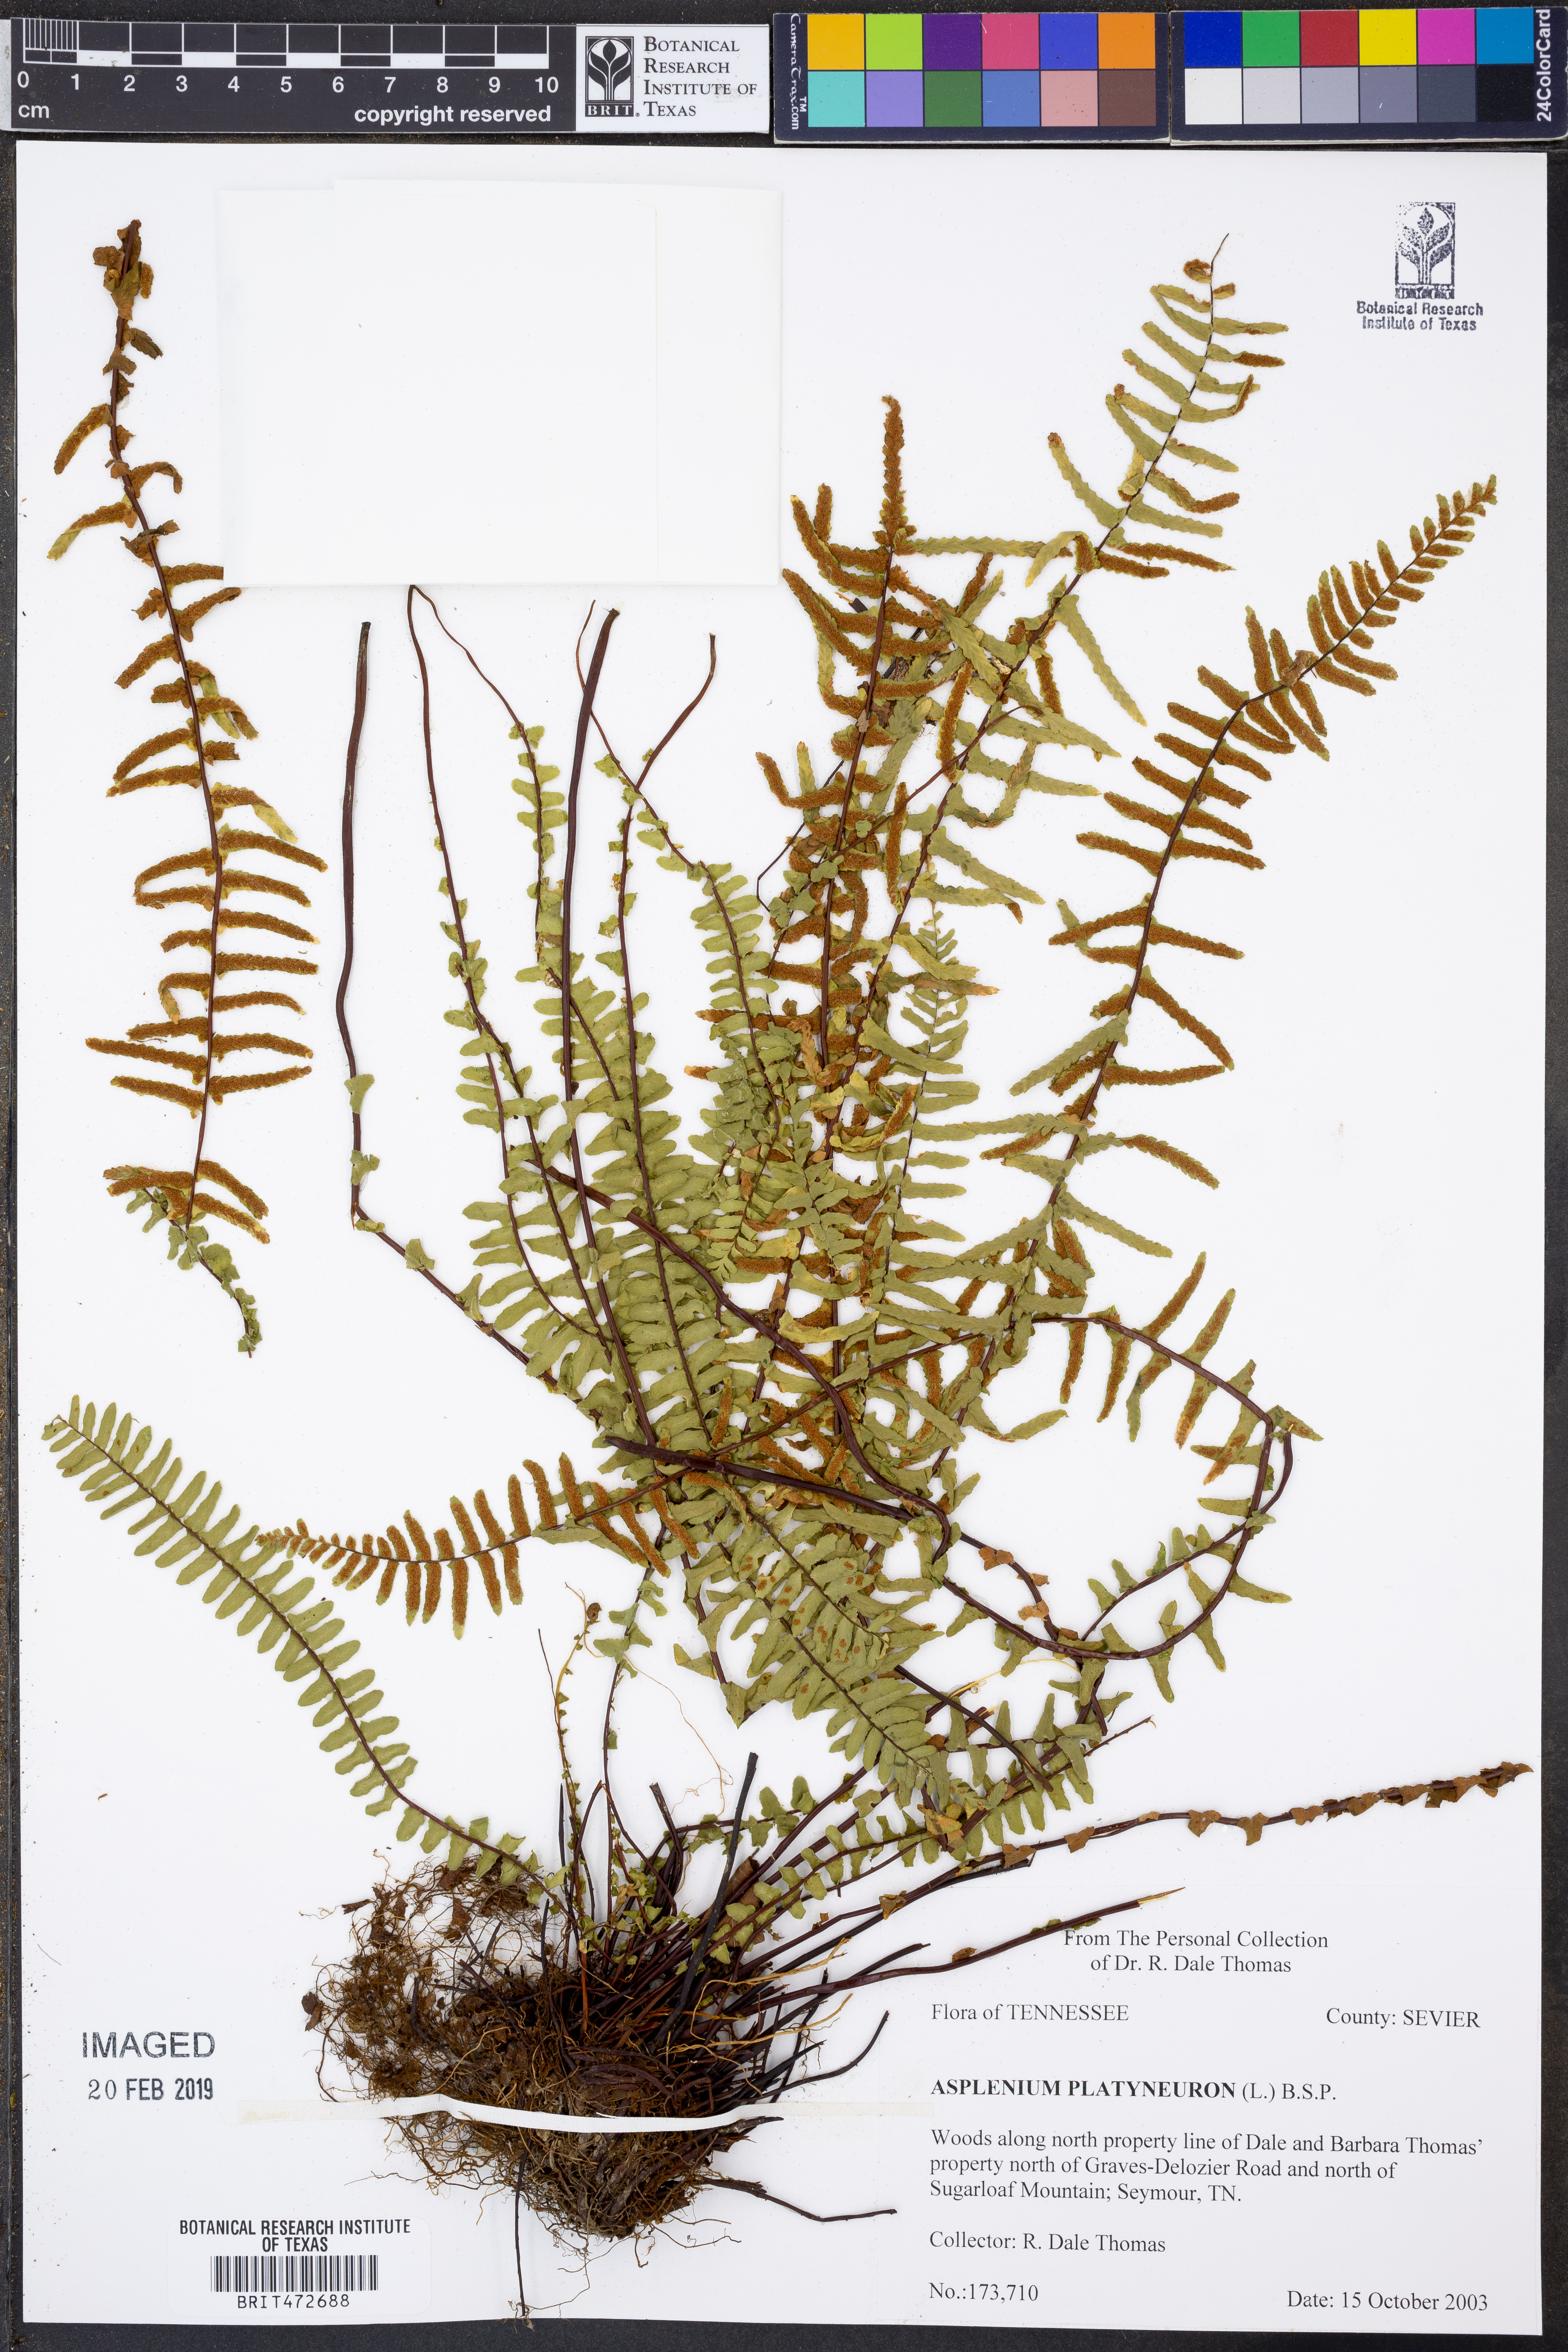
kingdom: Plantae
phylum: Tracheophyta
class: Polypodiopsida
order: Polypodiales
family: Aspleniaceae
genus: Asplenium
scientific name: Asplenium platyneuron
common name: Ebony spleenwort
